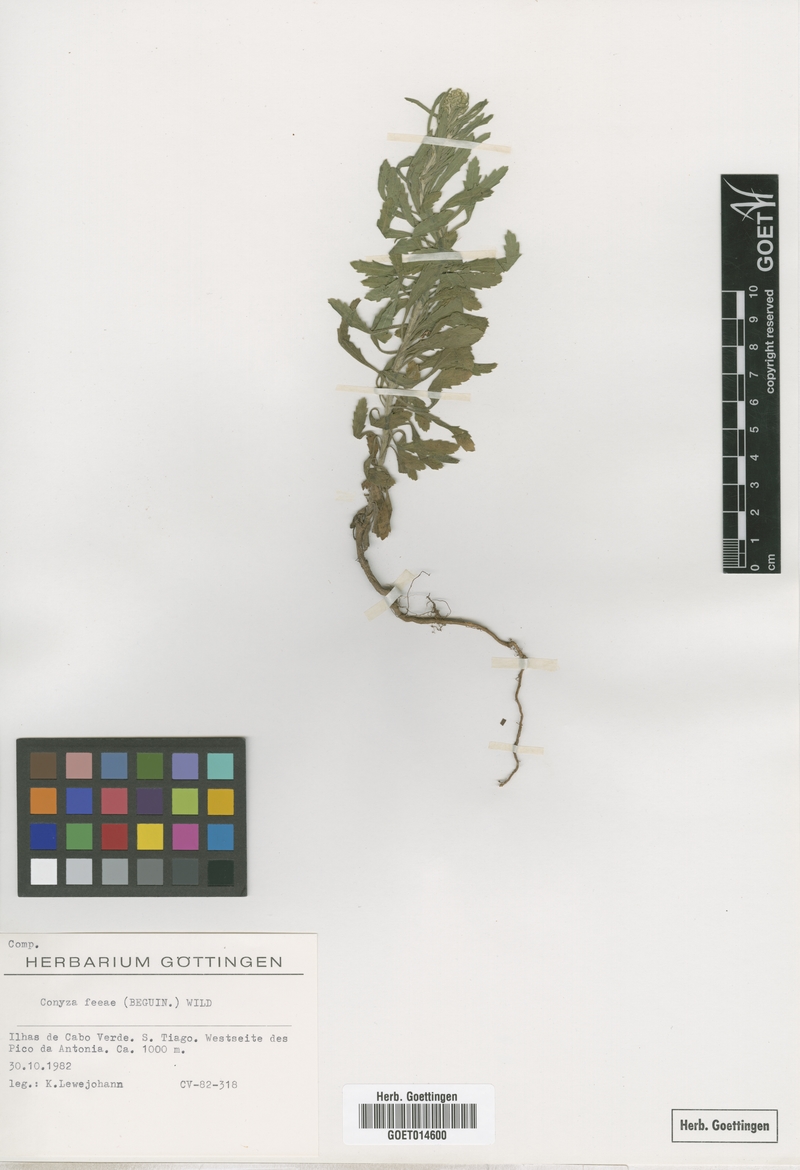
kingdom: Plantae
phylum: Tracheophyta
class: Magnoliopsida
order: Asterales
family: Asteraceae
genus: Nidorella
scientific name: Nidorella nobrei
